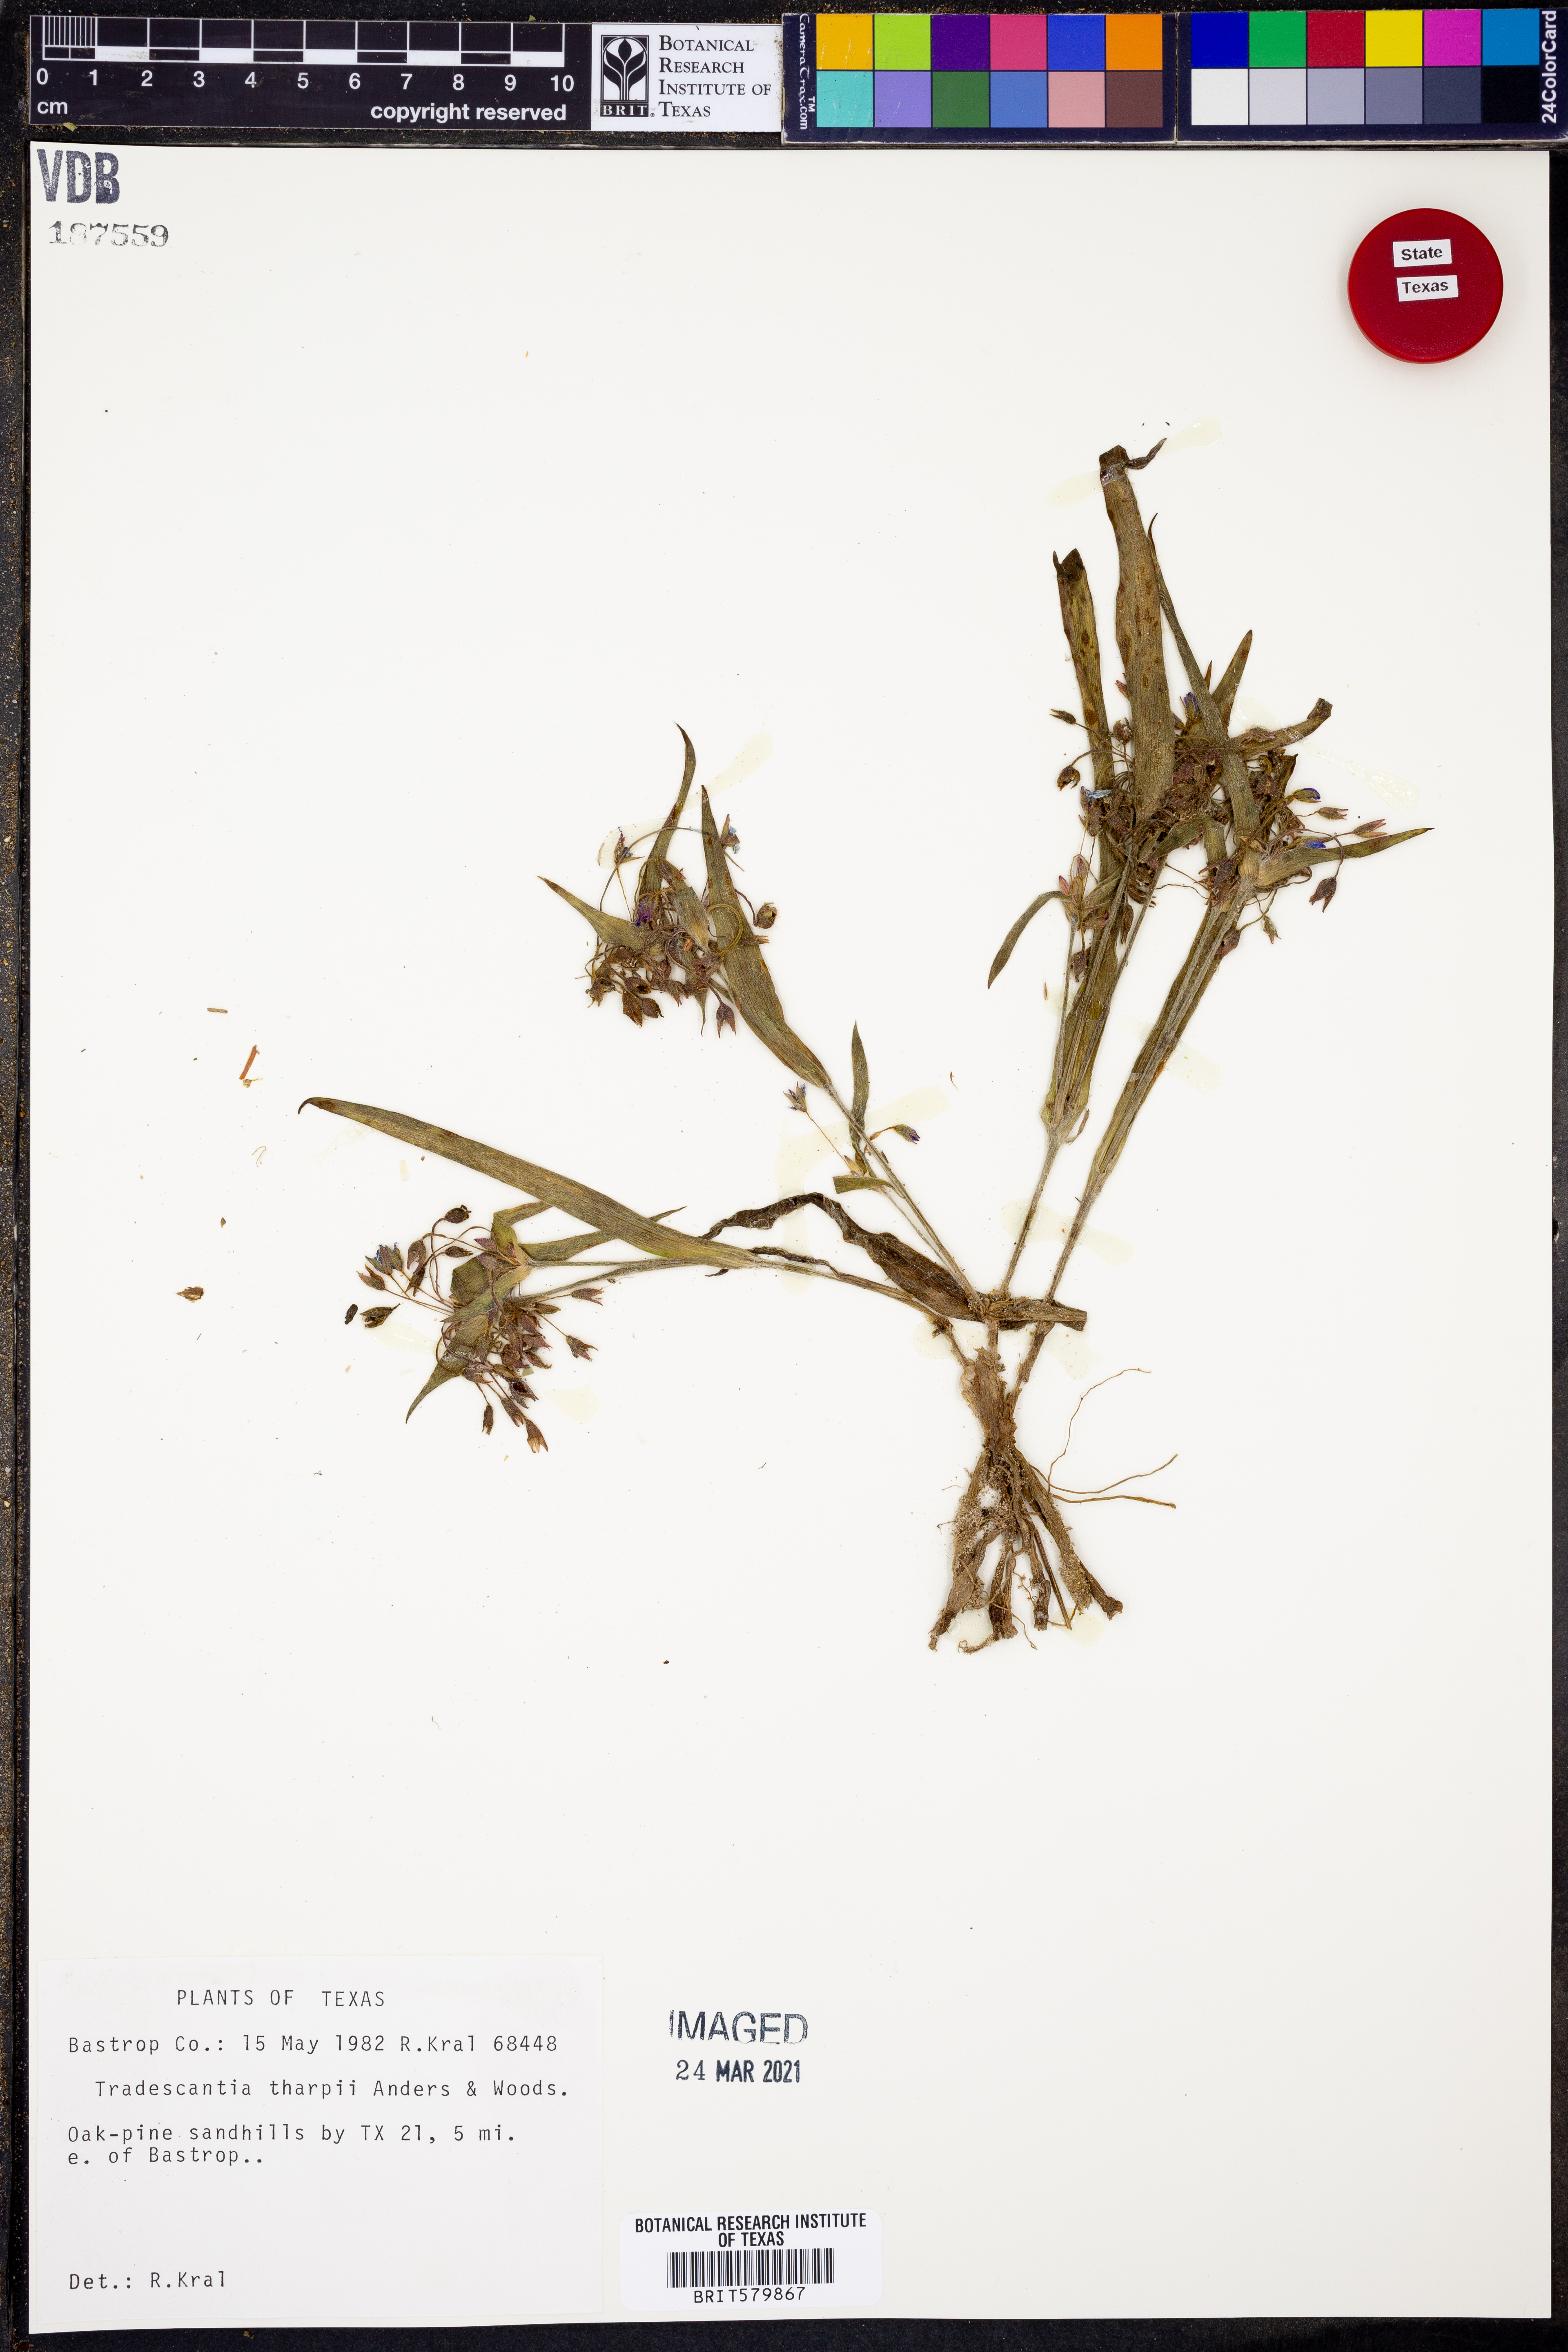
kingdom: Plantae
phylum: Tracheophyta
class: Liliopsida
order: Commelinales
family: Commelinaceae
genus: Tradescantia
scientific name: Tradescantia tharpii
